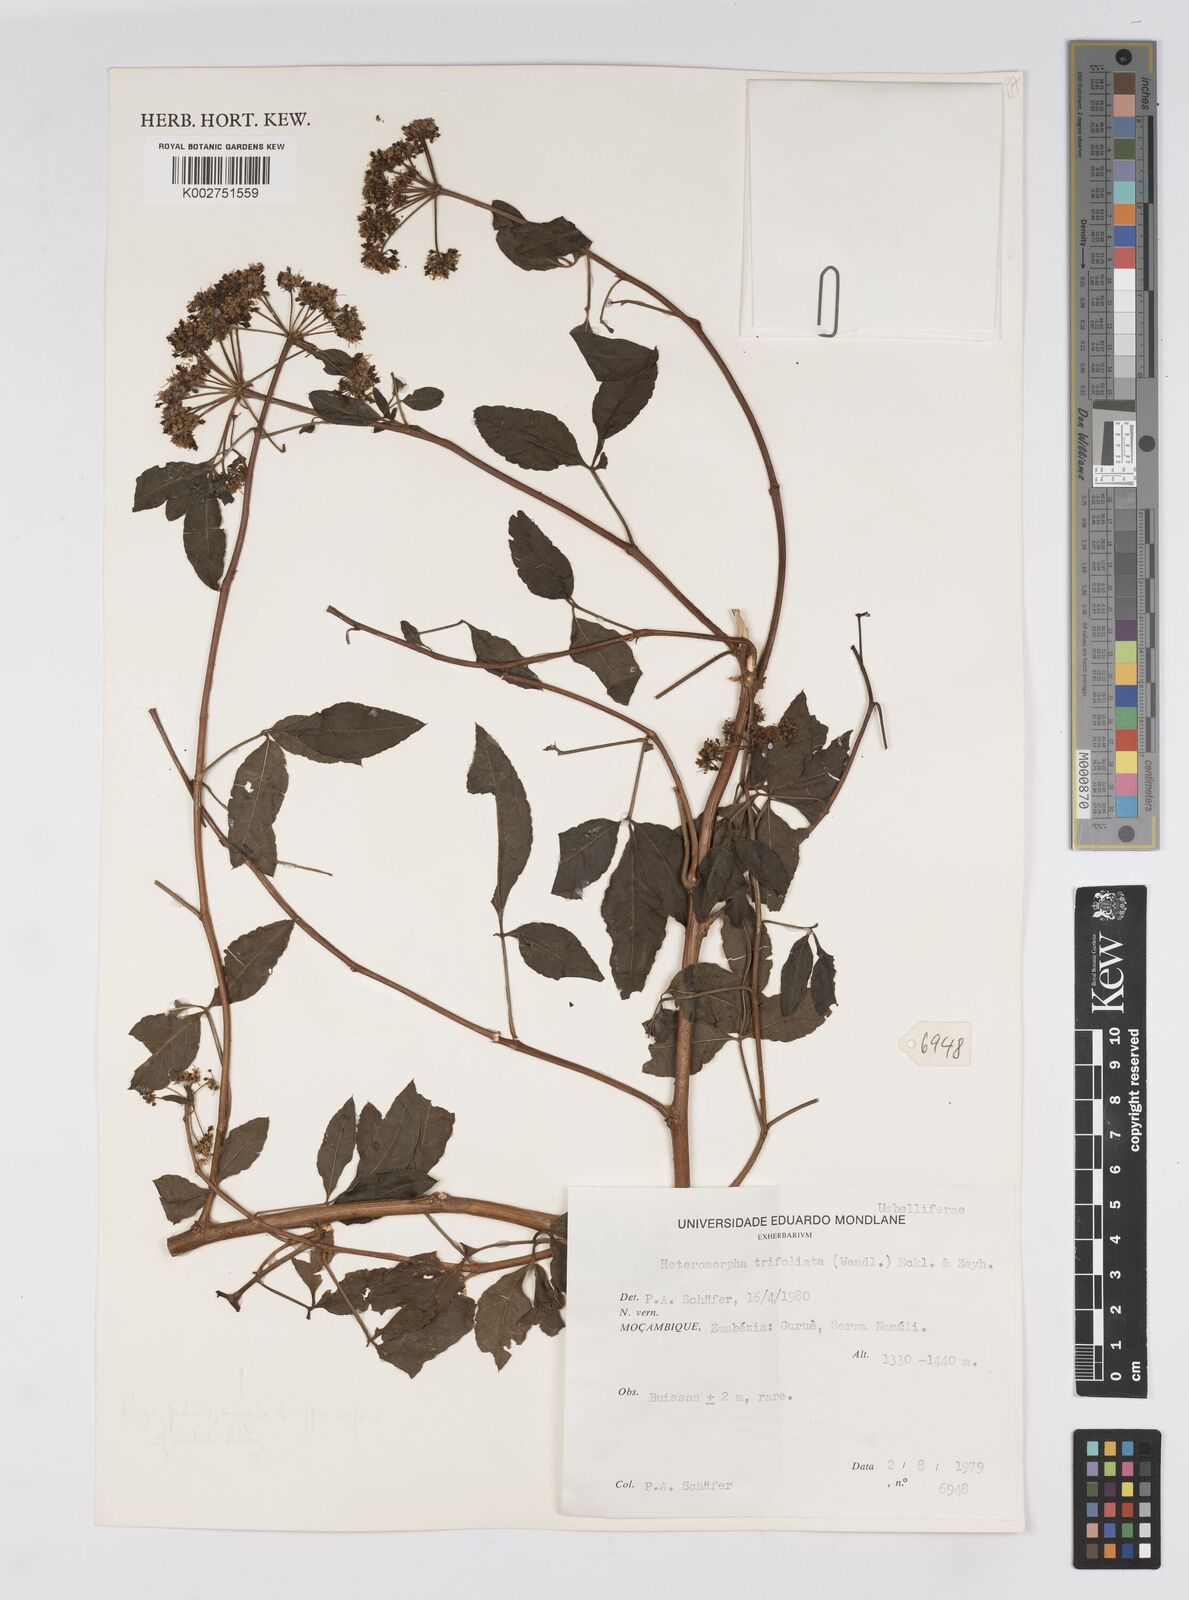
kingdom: Plantae
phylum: Tracheophyta
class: Magnoliopsida
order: Apiales
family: Apiaceae
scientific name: Apiaceae
